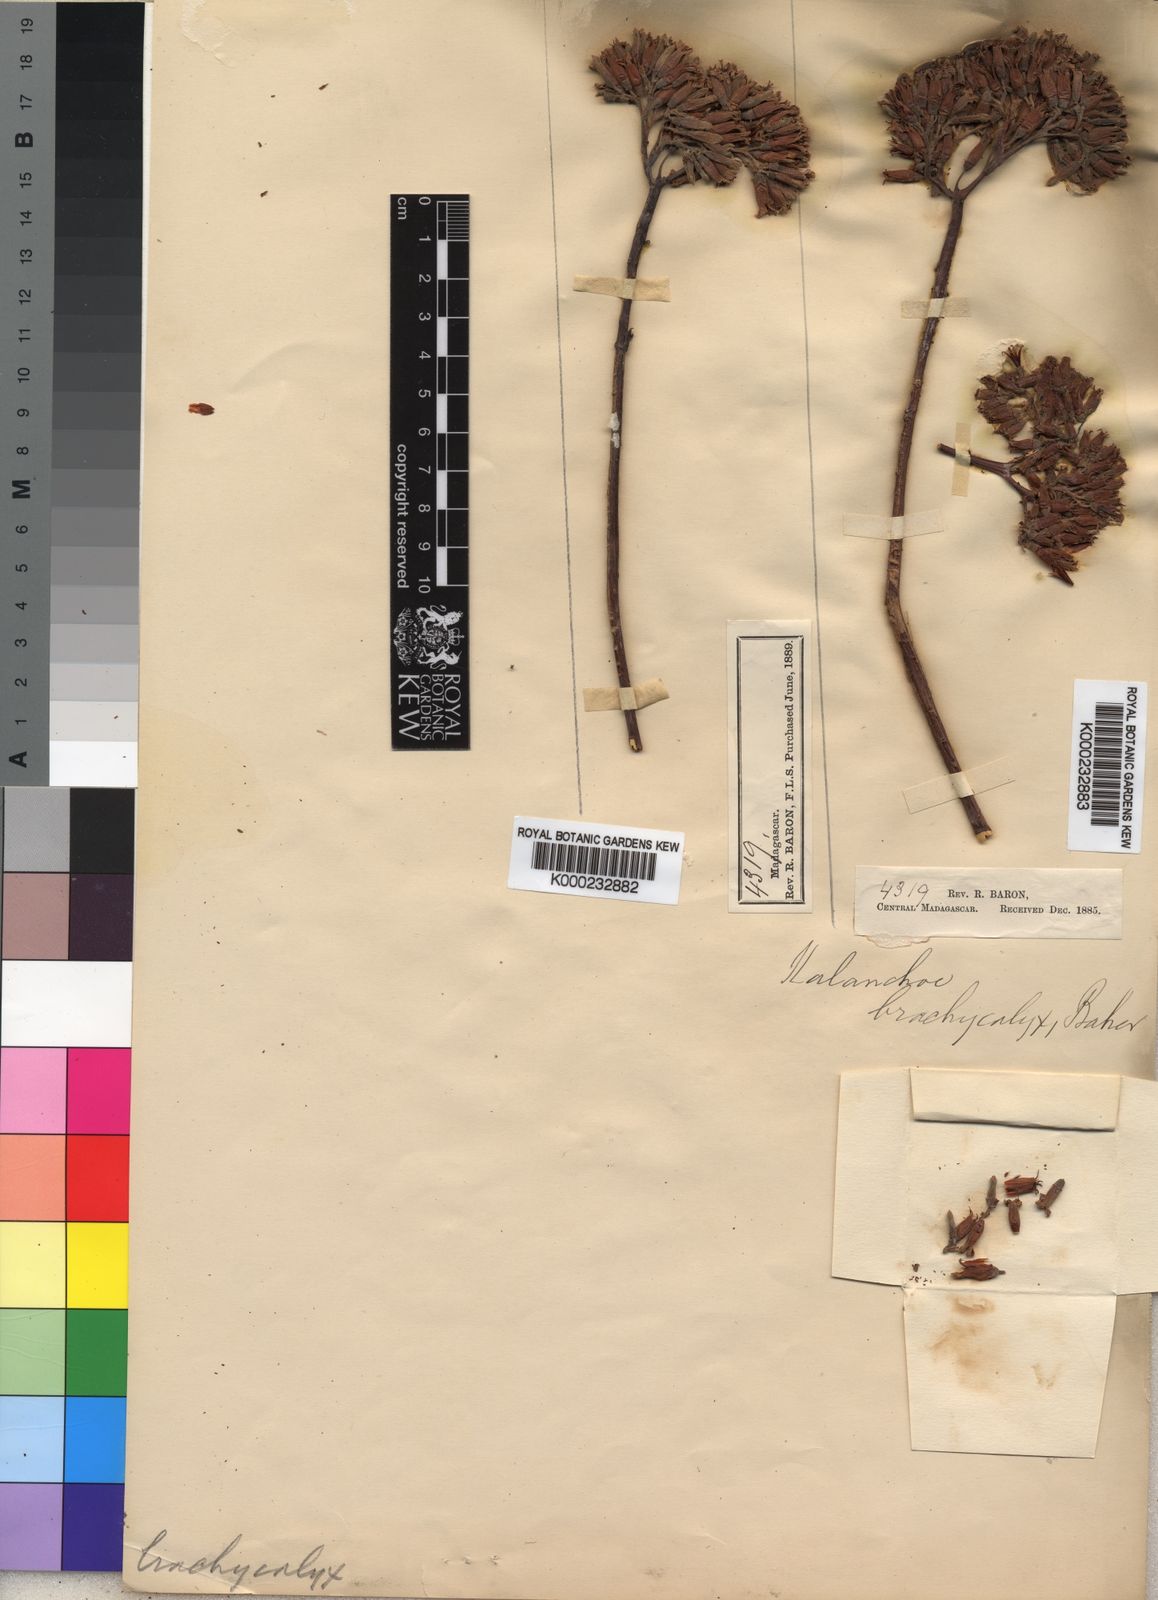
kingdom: Plantae
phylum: Tracheophyta
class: Magnoliopsida
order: Saxifragales
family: Crassulaceae
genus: Kalanchoe
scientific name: Kalanchoe synsepala
